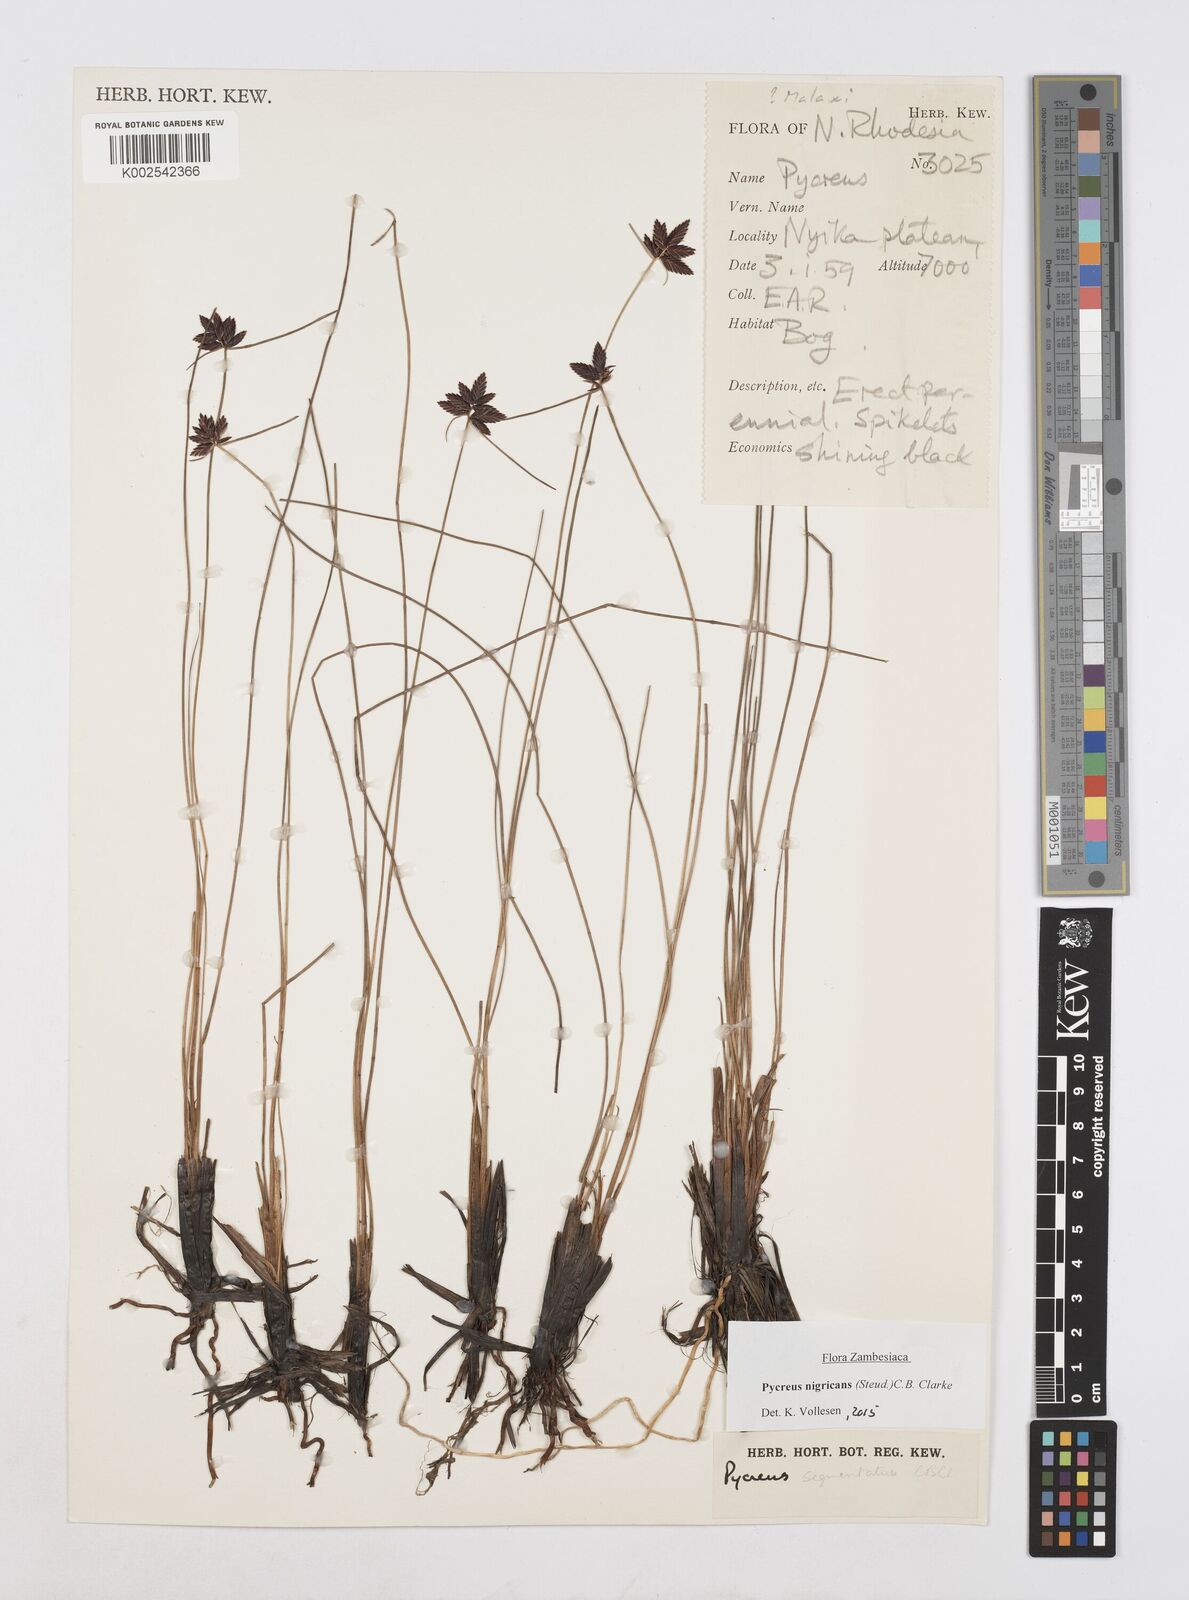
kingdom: Plantae
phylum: Tracheophyta
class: Liliopsida
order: Poales
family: Cyperaceae
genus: Cyperus
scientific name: Cyperus nigricans
